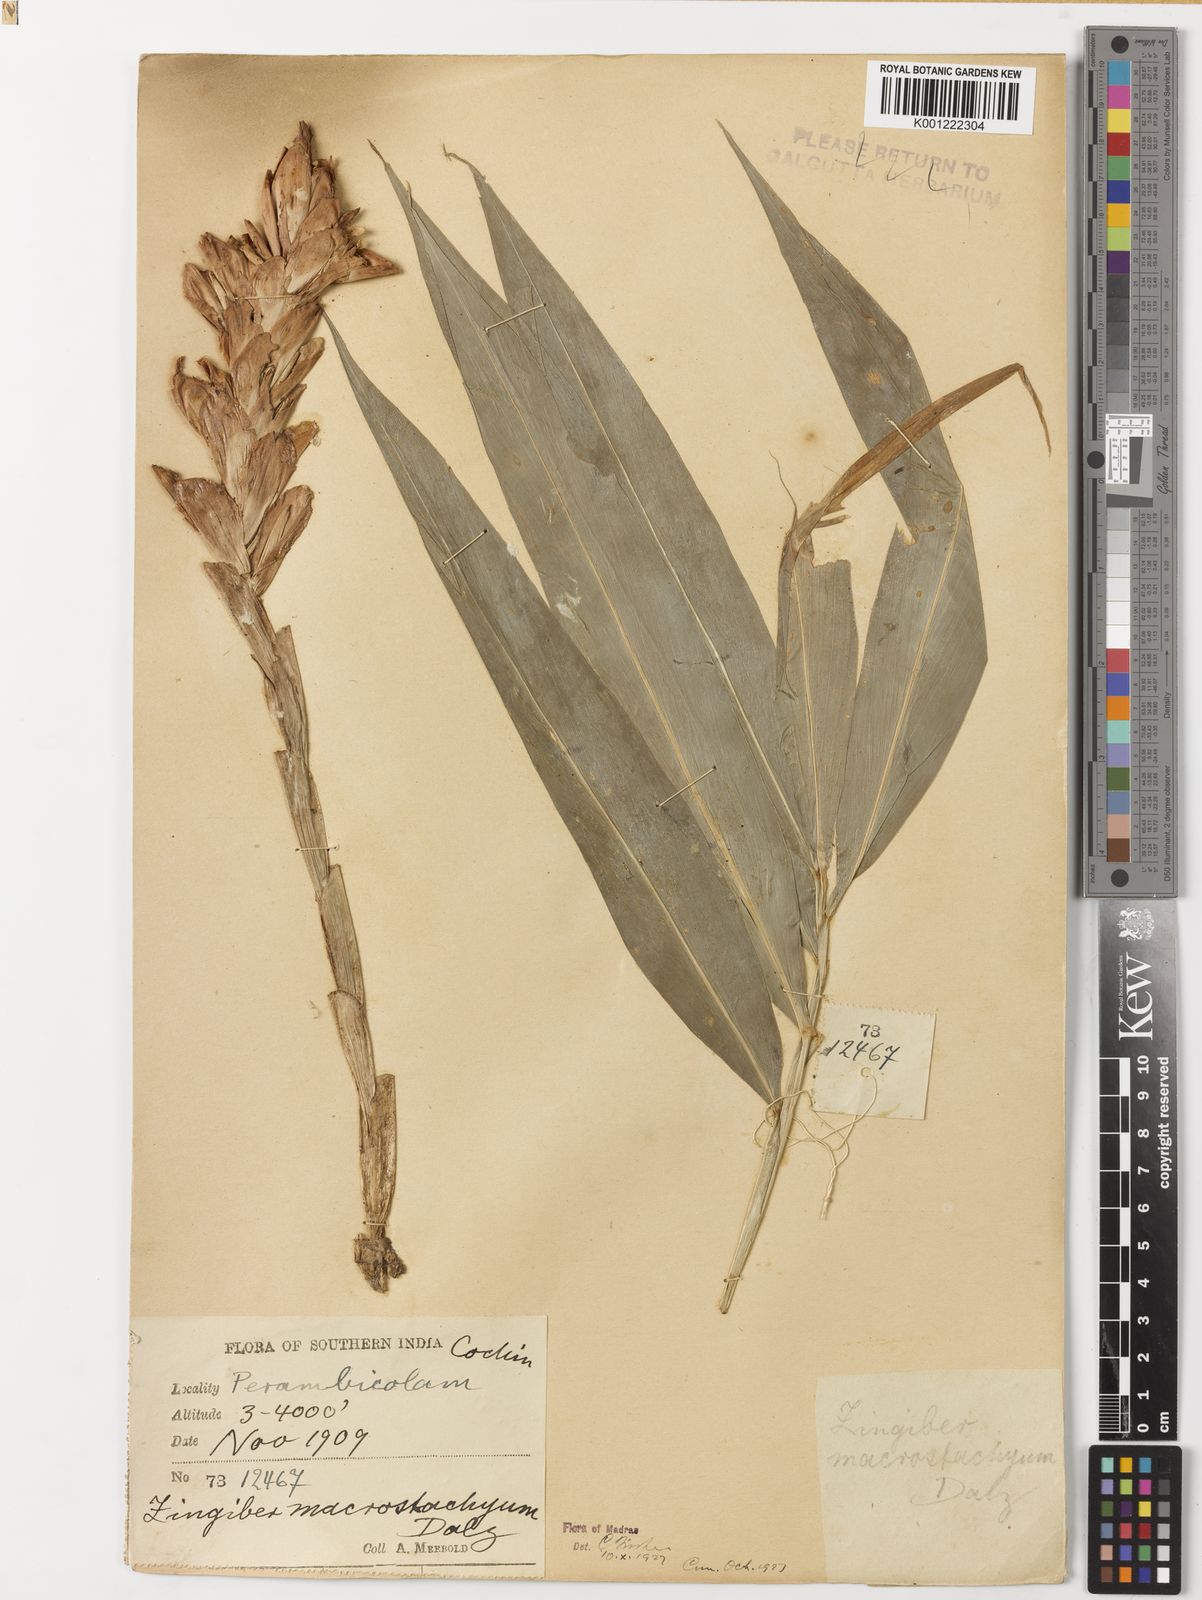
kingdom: Plantae
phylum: Tracheophyta
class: Liliopsida
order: Zingiberales
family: Zingiberaceae
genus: Zingiber
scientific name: Zingiber neesanum
